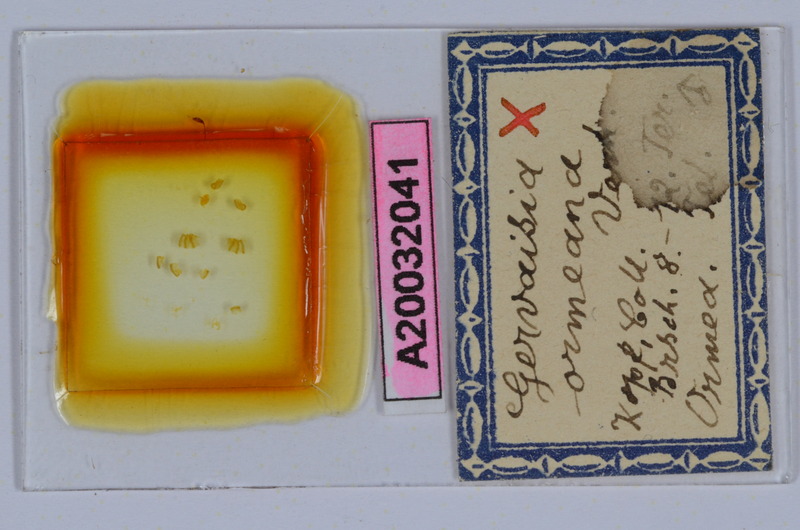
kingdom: Animalia
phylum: Arthropoda
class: Diplopoda
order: Glomerida
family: Glomeridae
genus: Trachysphaera
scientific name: Trachysphaera ormeana
